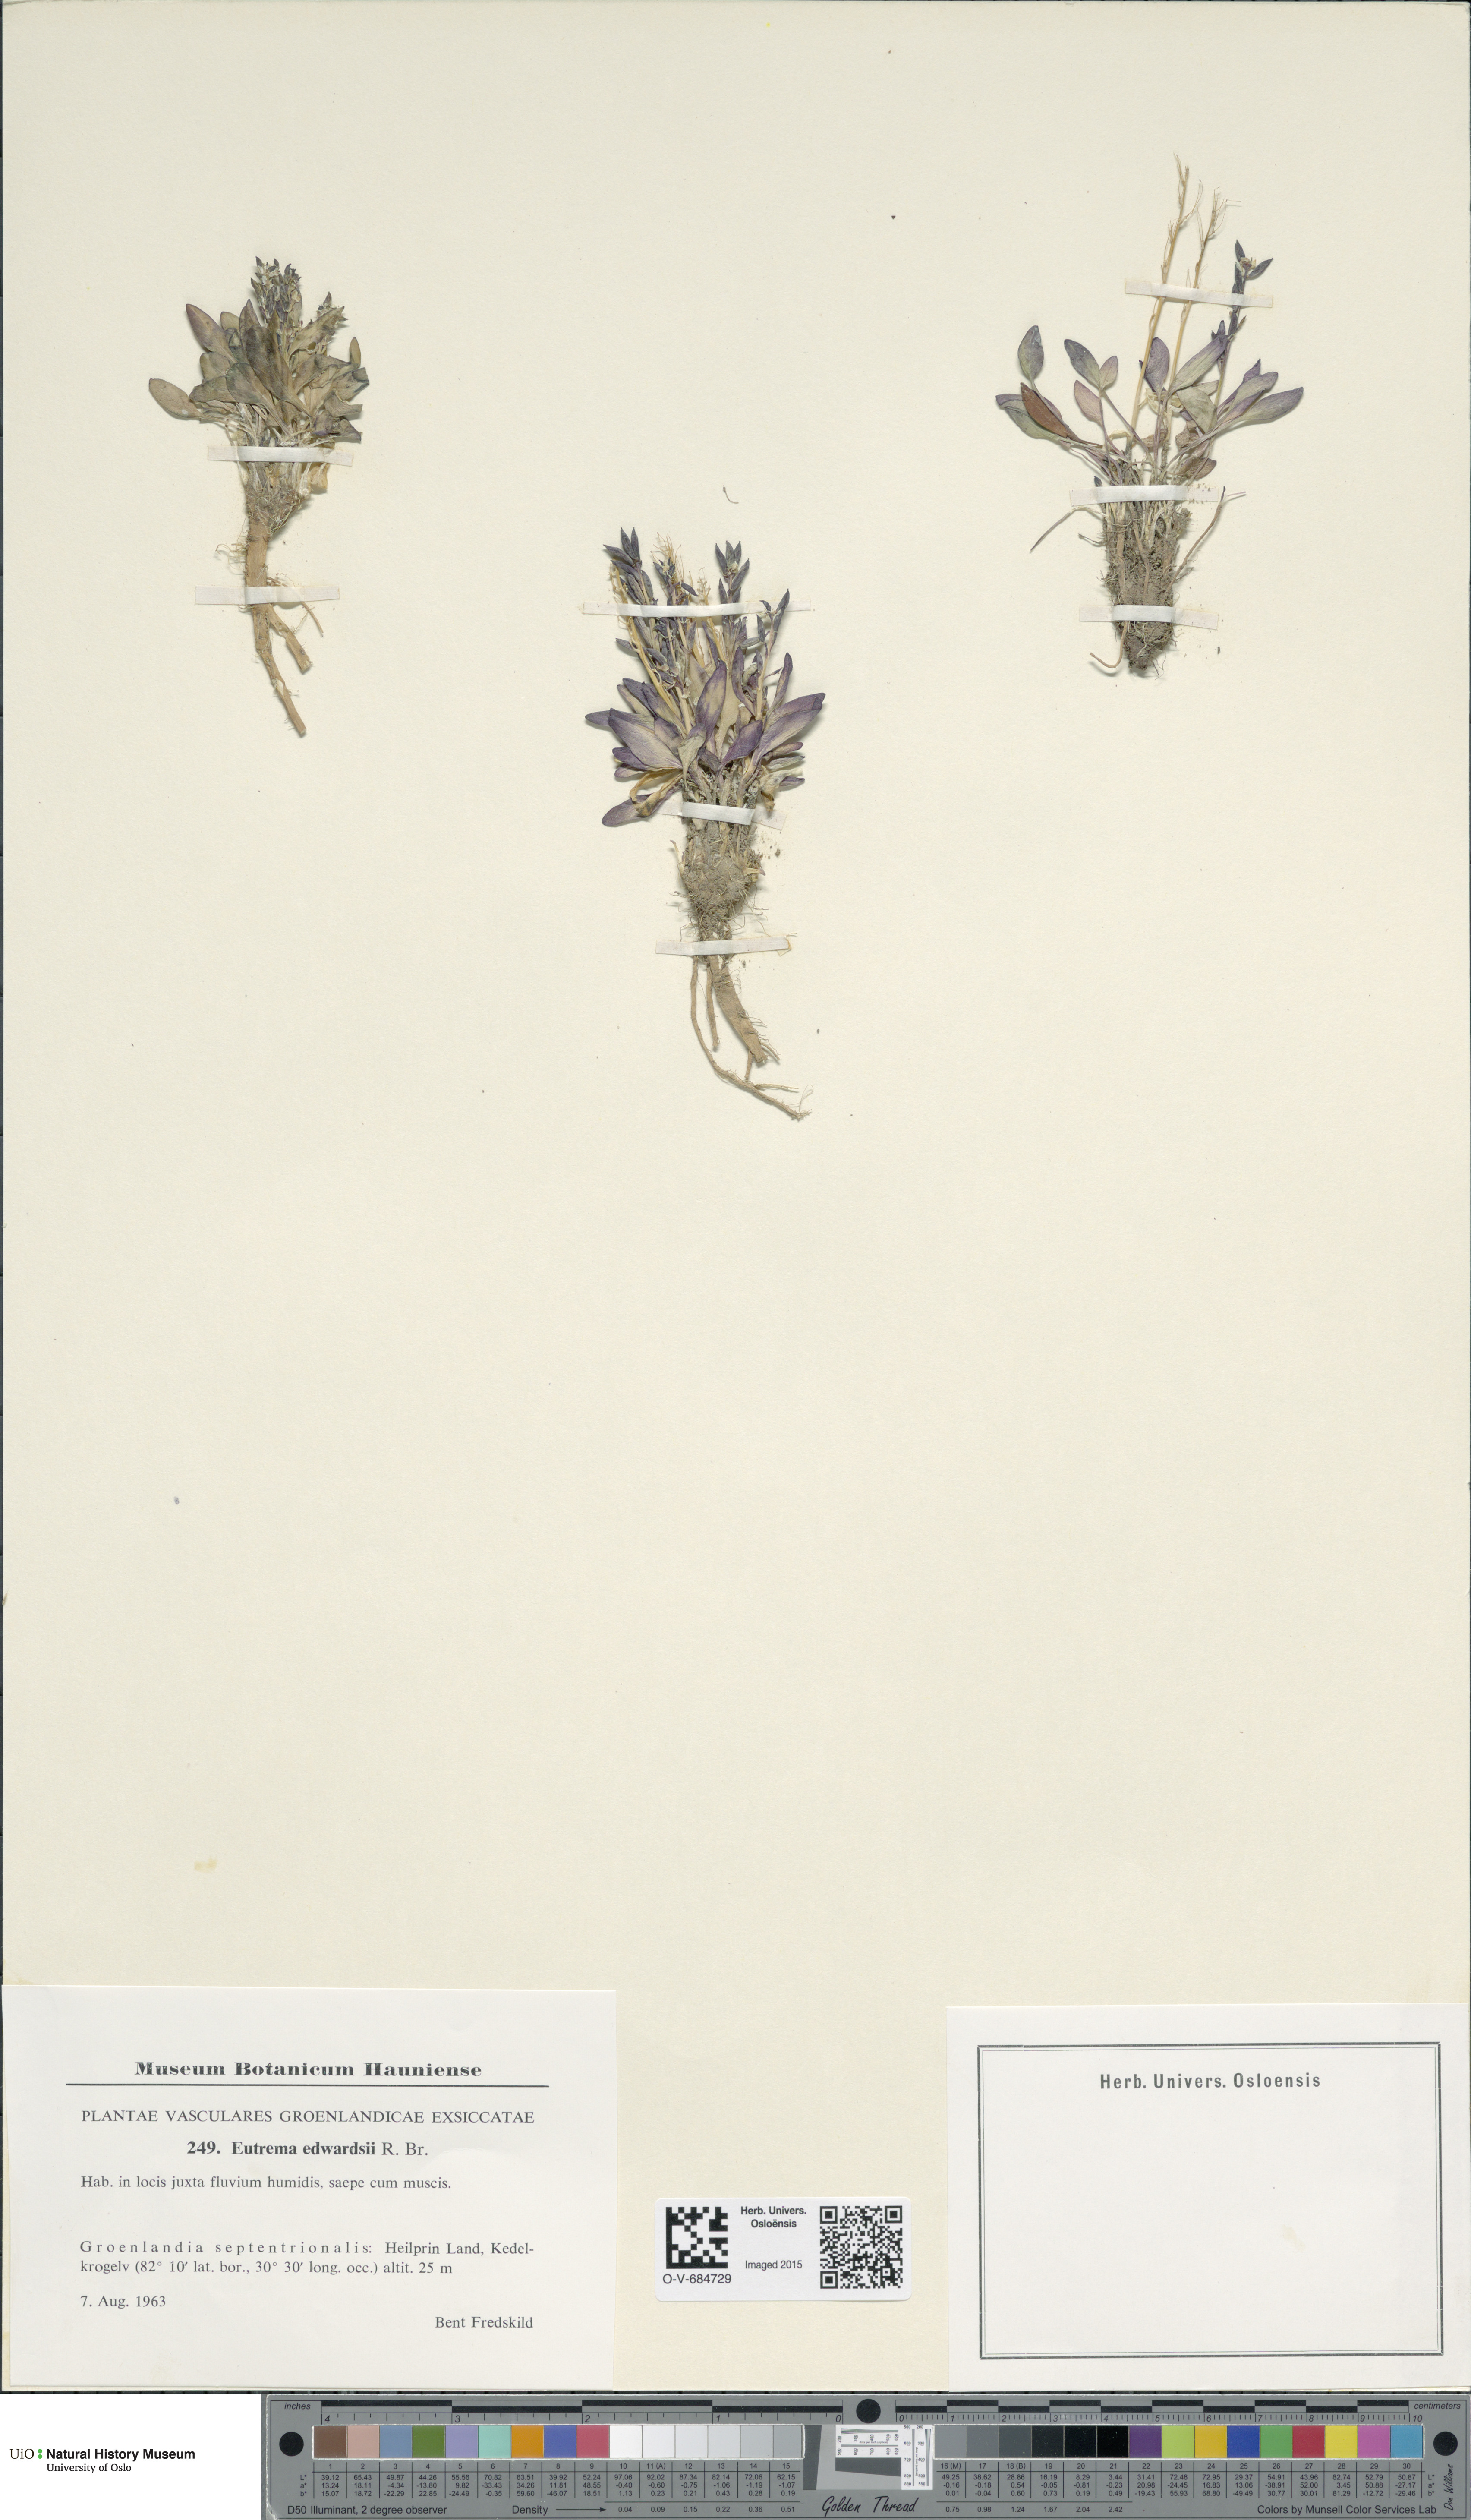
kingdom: Plantae
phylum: Tracheophyta
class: Magnoliopsida
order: Brassicales
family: Brassicaceae
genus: Eutrema
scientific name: Eutrema edwardsii
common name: Penland alpine fen mustard
